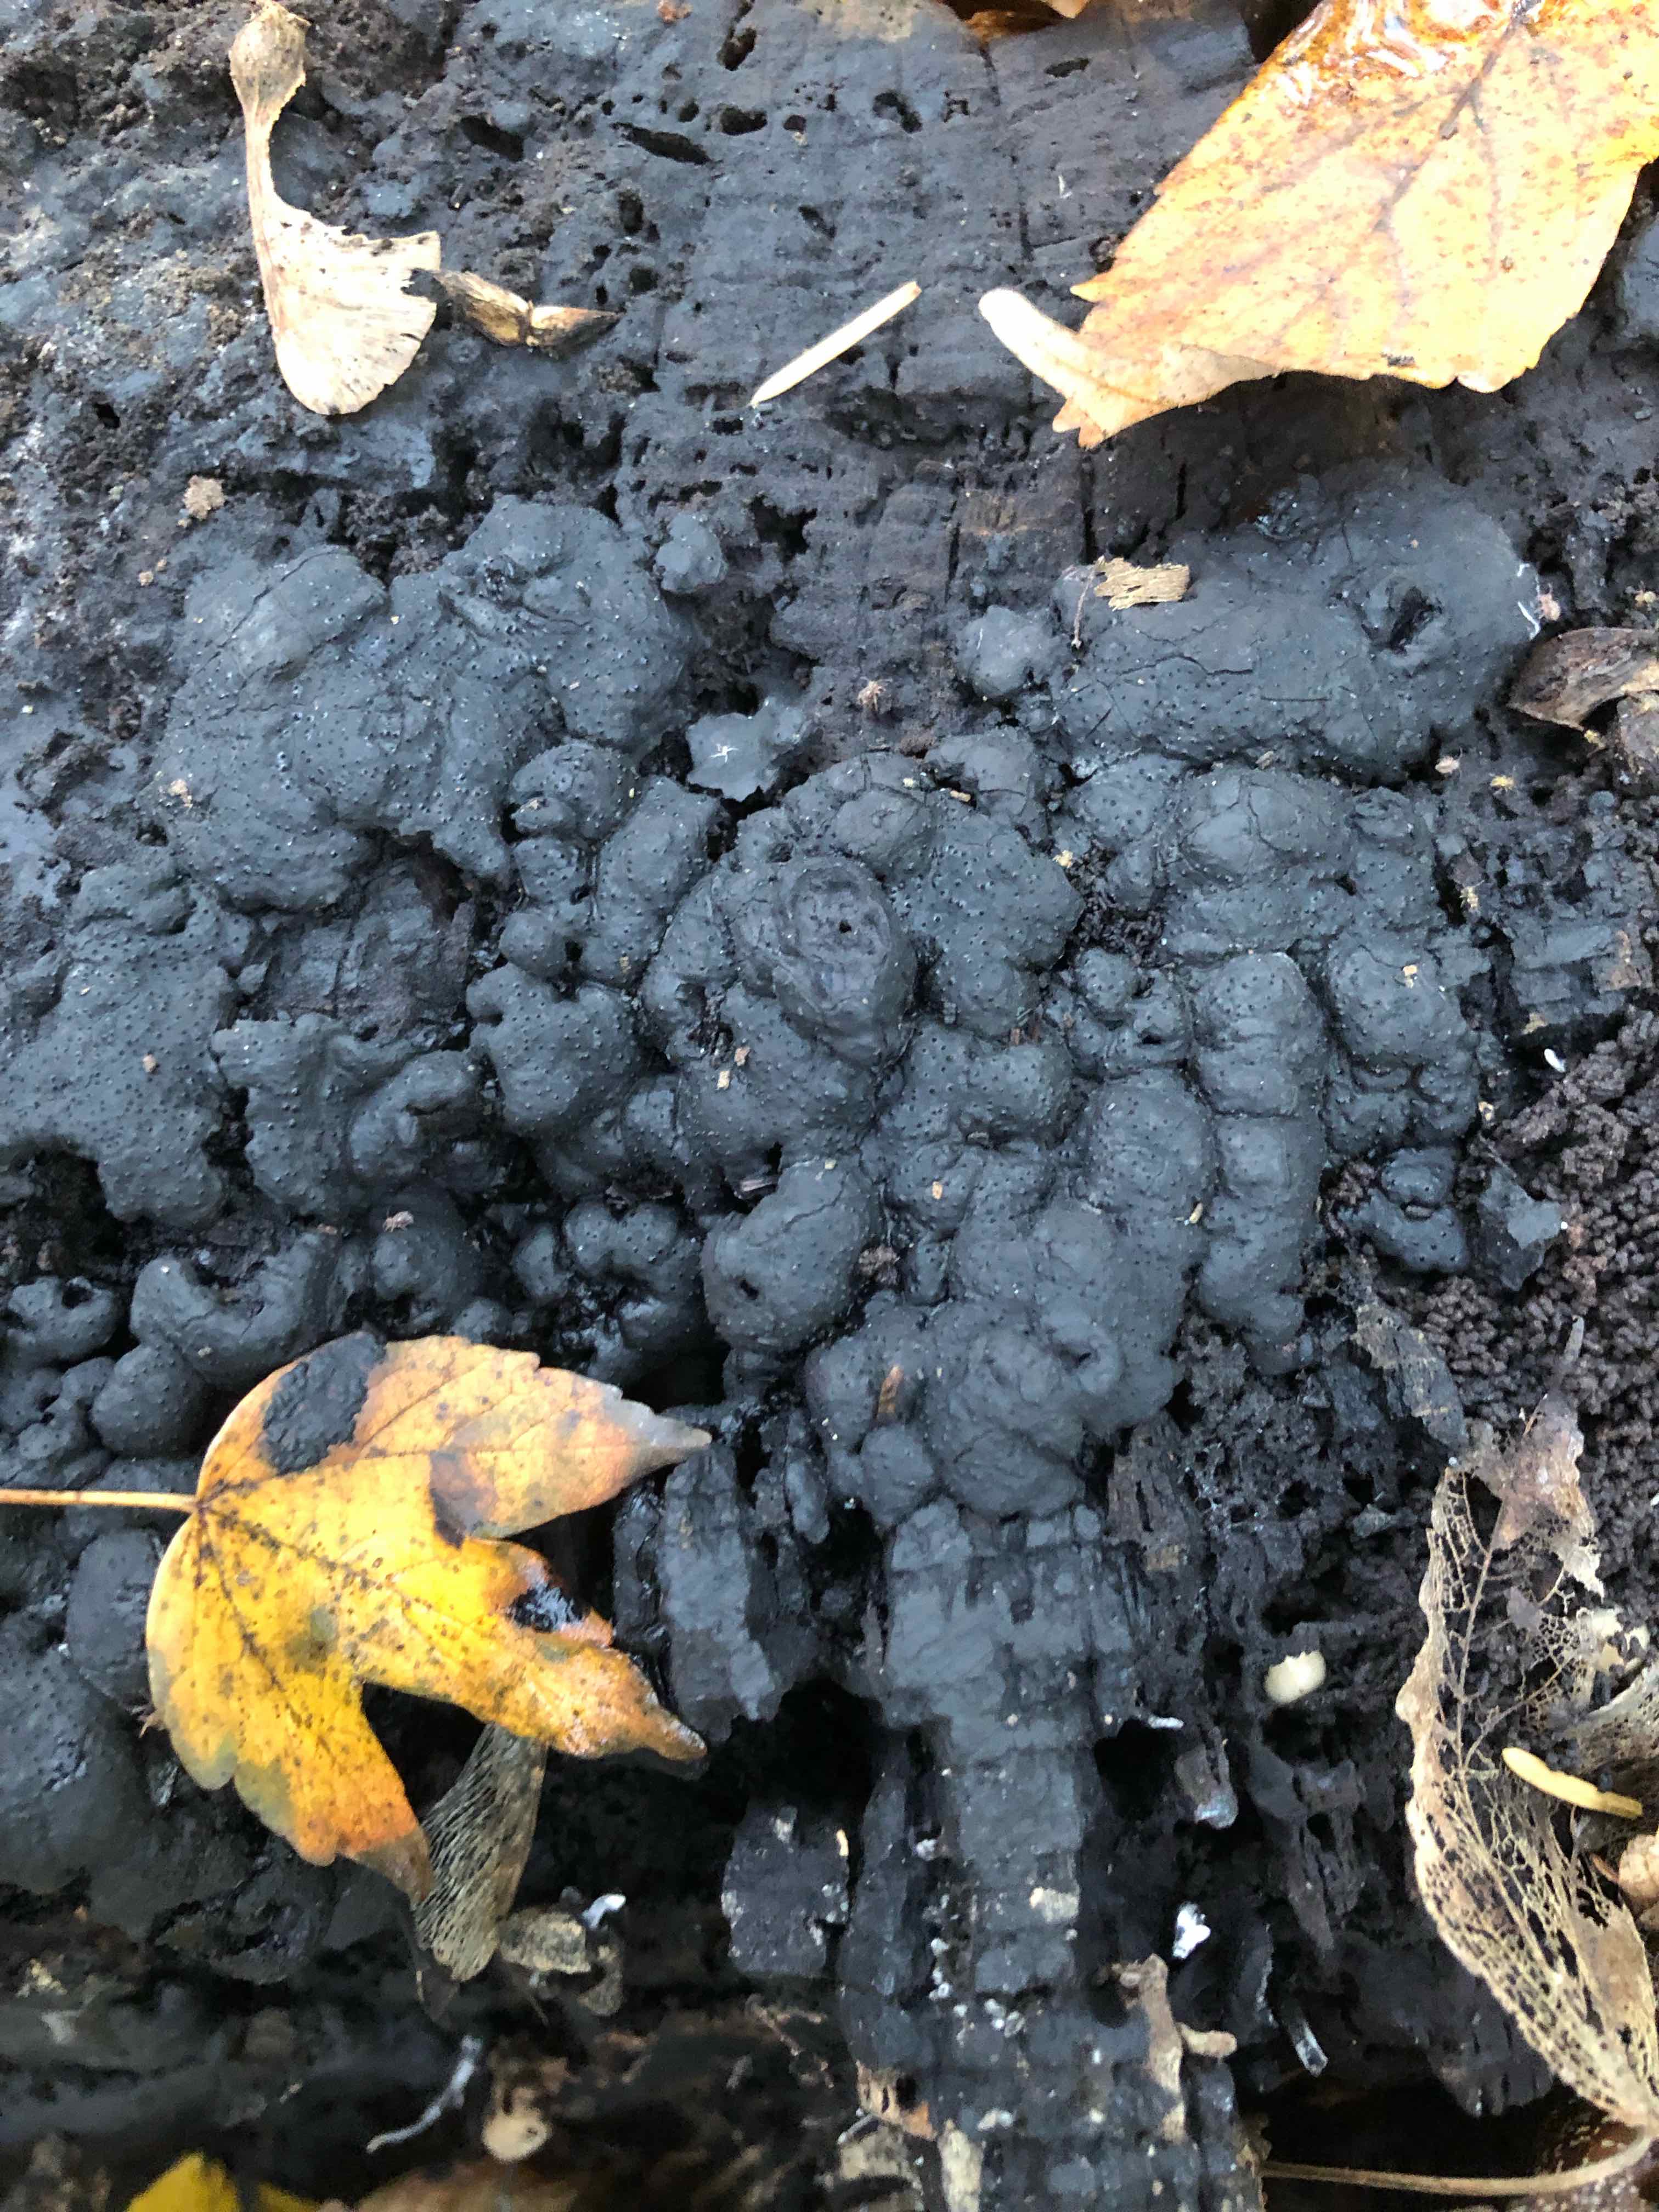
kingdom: Fungi
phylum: Ascomycota
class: Sordariomycetes
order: Xylariales
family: Xylariaceae
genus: Kretzschmaria
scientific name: Kretzschmaria deusta
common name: stor kulsvamp
